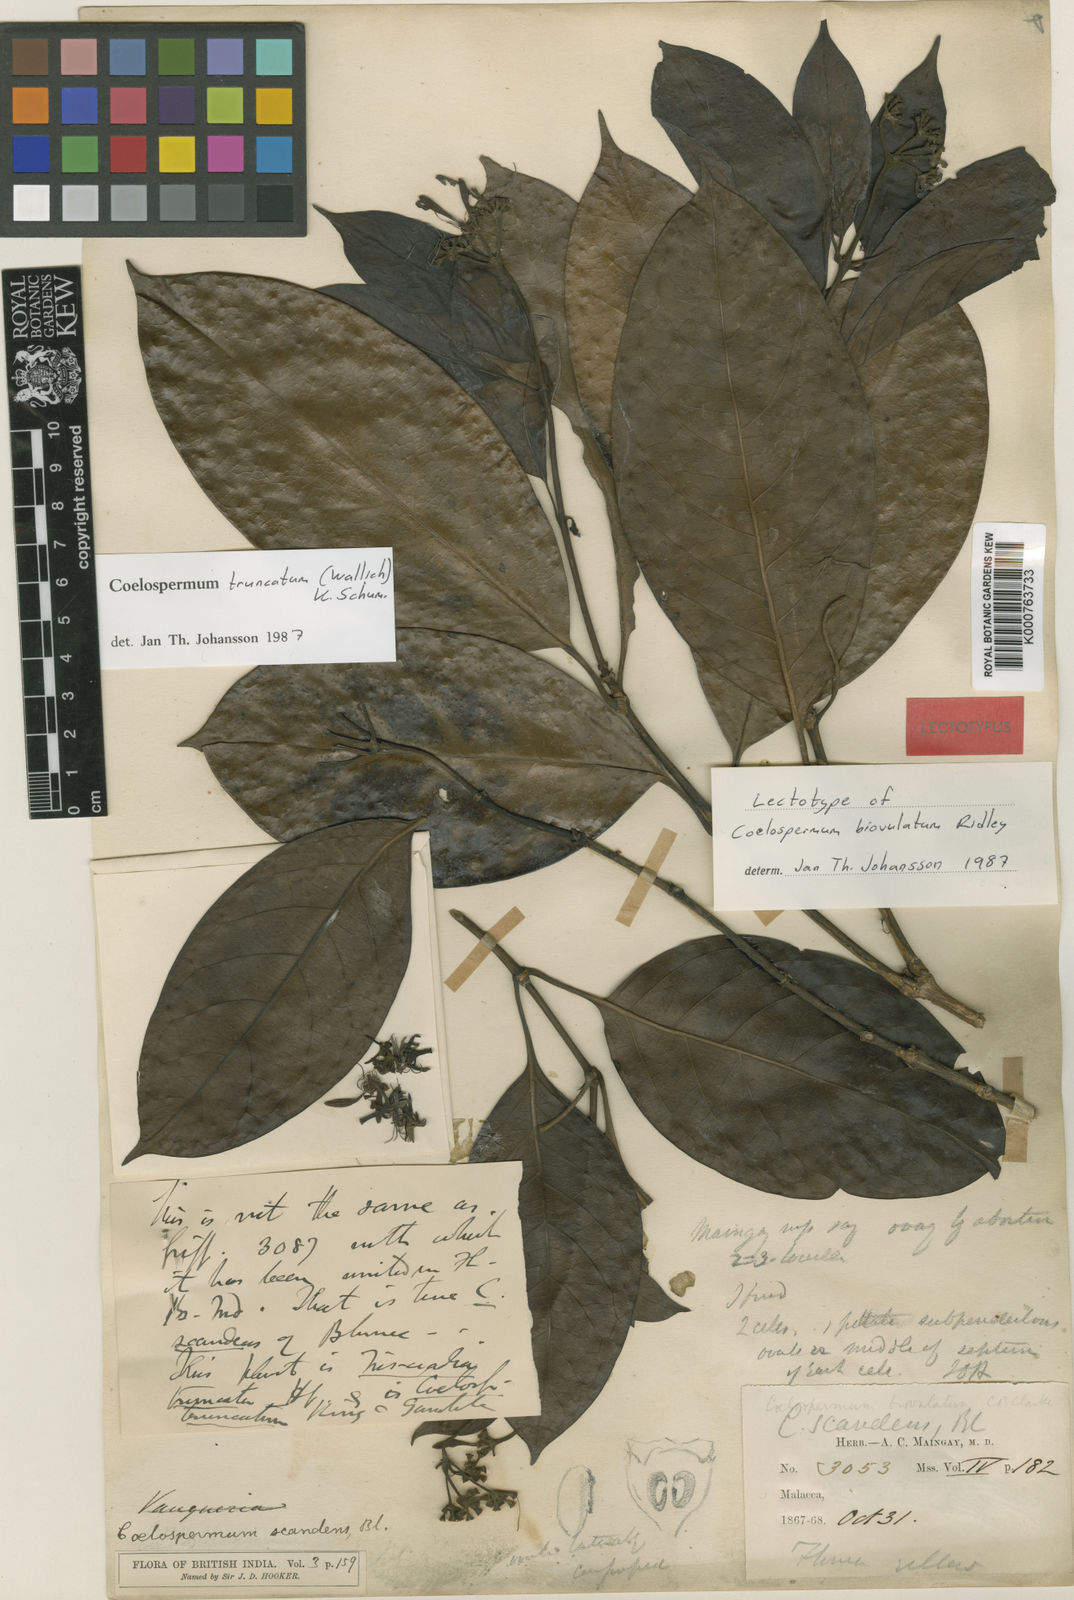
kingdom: Plantae
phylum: Tracheophyta
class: Magnoliopsida
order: Gentianales
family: Rubiaceae
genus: Coelospermum
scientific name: Coelospermum truncatum
